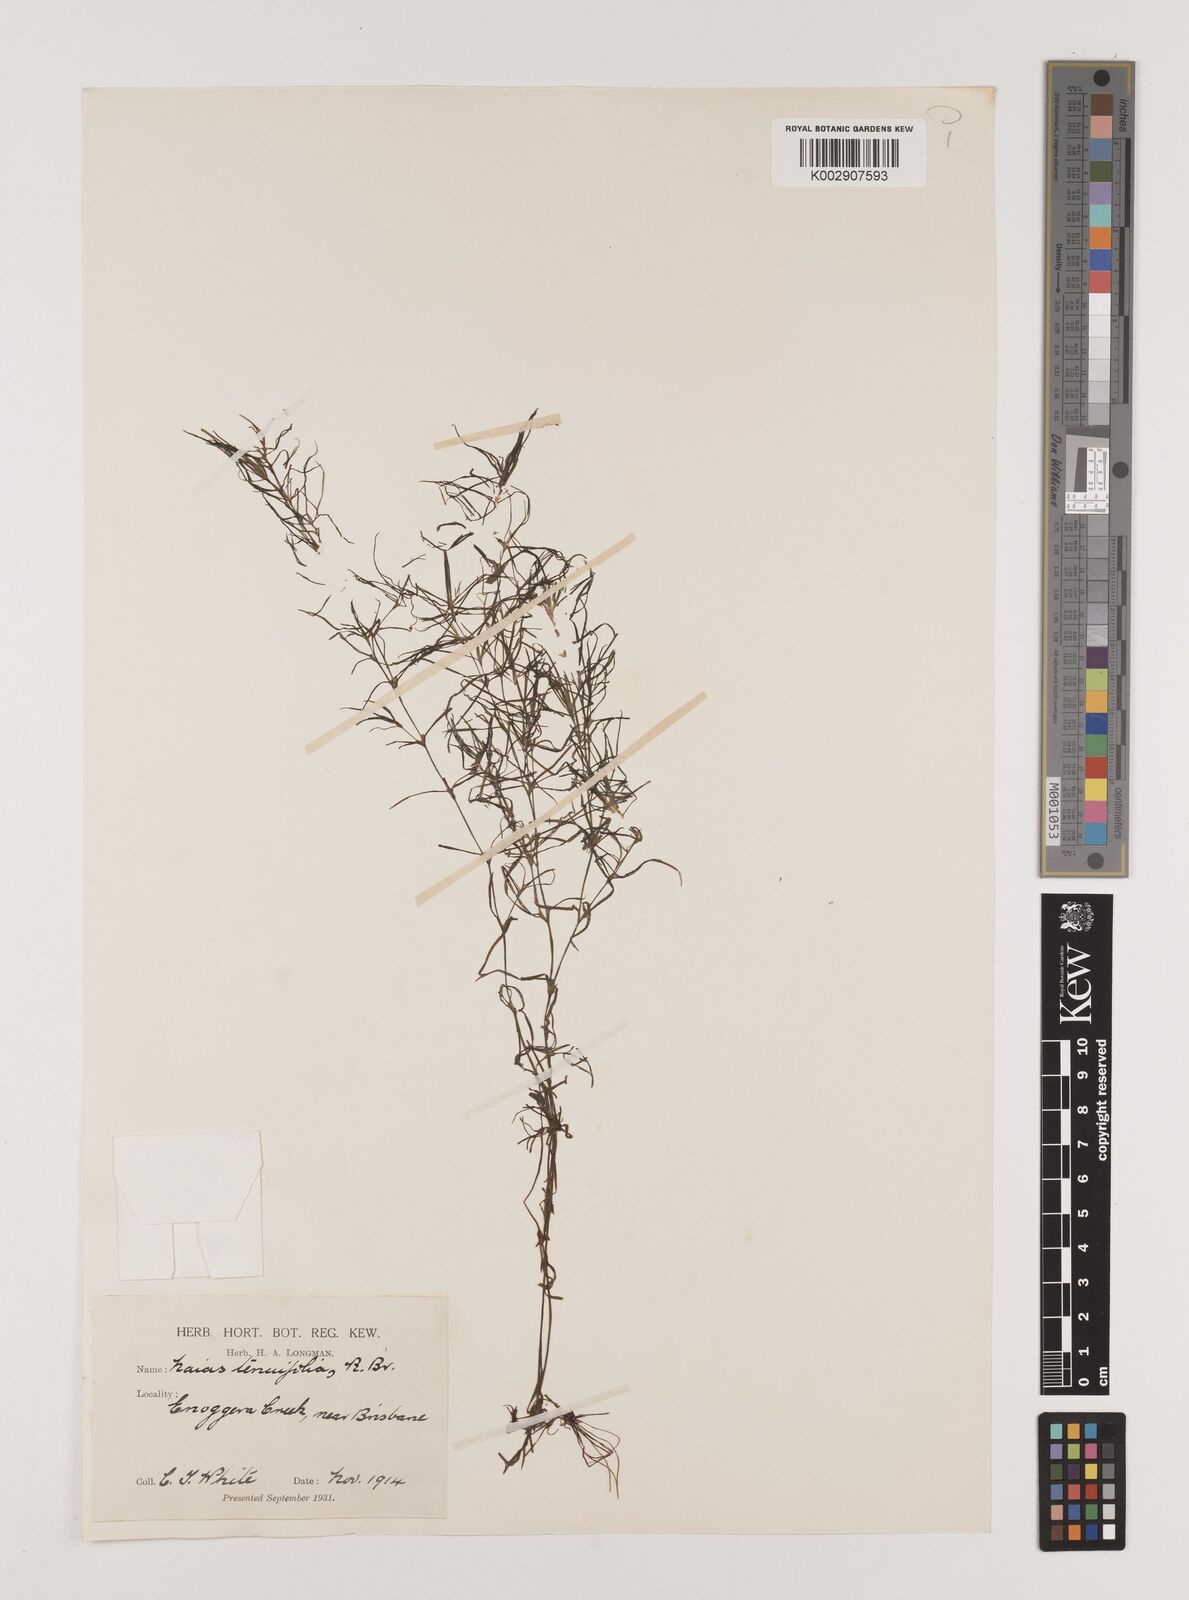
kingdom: Plantae
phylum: Tracheophyta
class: Liliopsida
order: Alismatales
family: Hydrocharitaceae
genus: Najas
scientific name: Najas tenuifolia
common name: Thin-leaved naiad
